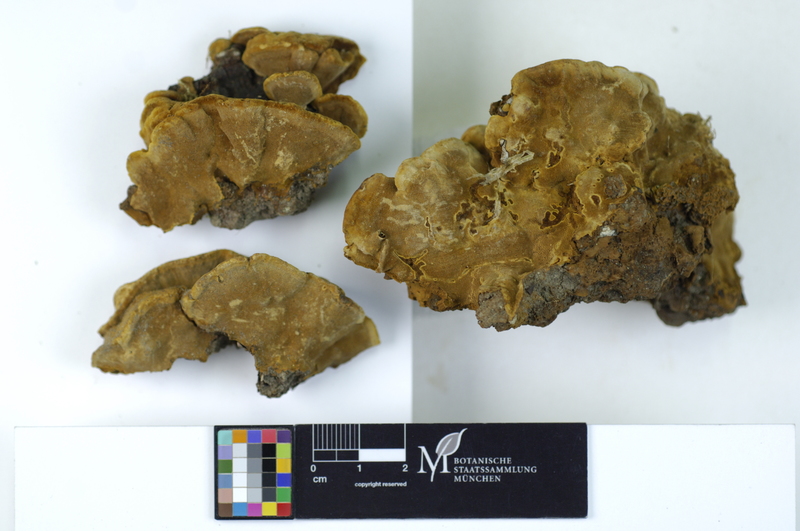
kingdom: Plantae
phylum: Tracheophyta
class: Magnoliopsida
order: Saxifragales
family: Grossulariaceae
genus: Ribes
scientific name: Ribes
